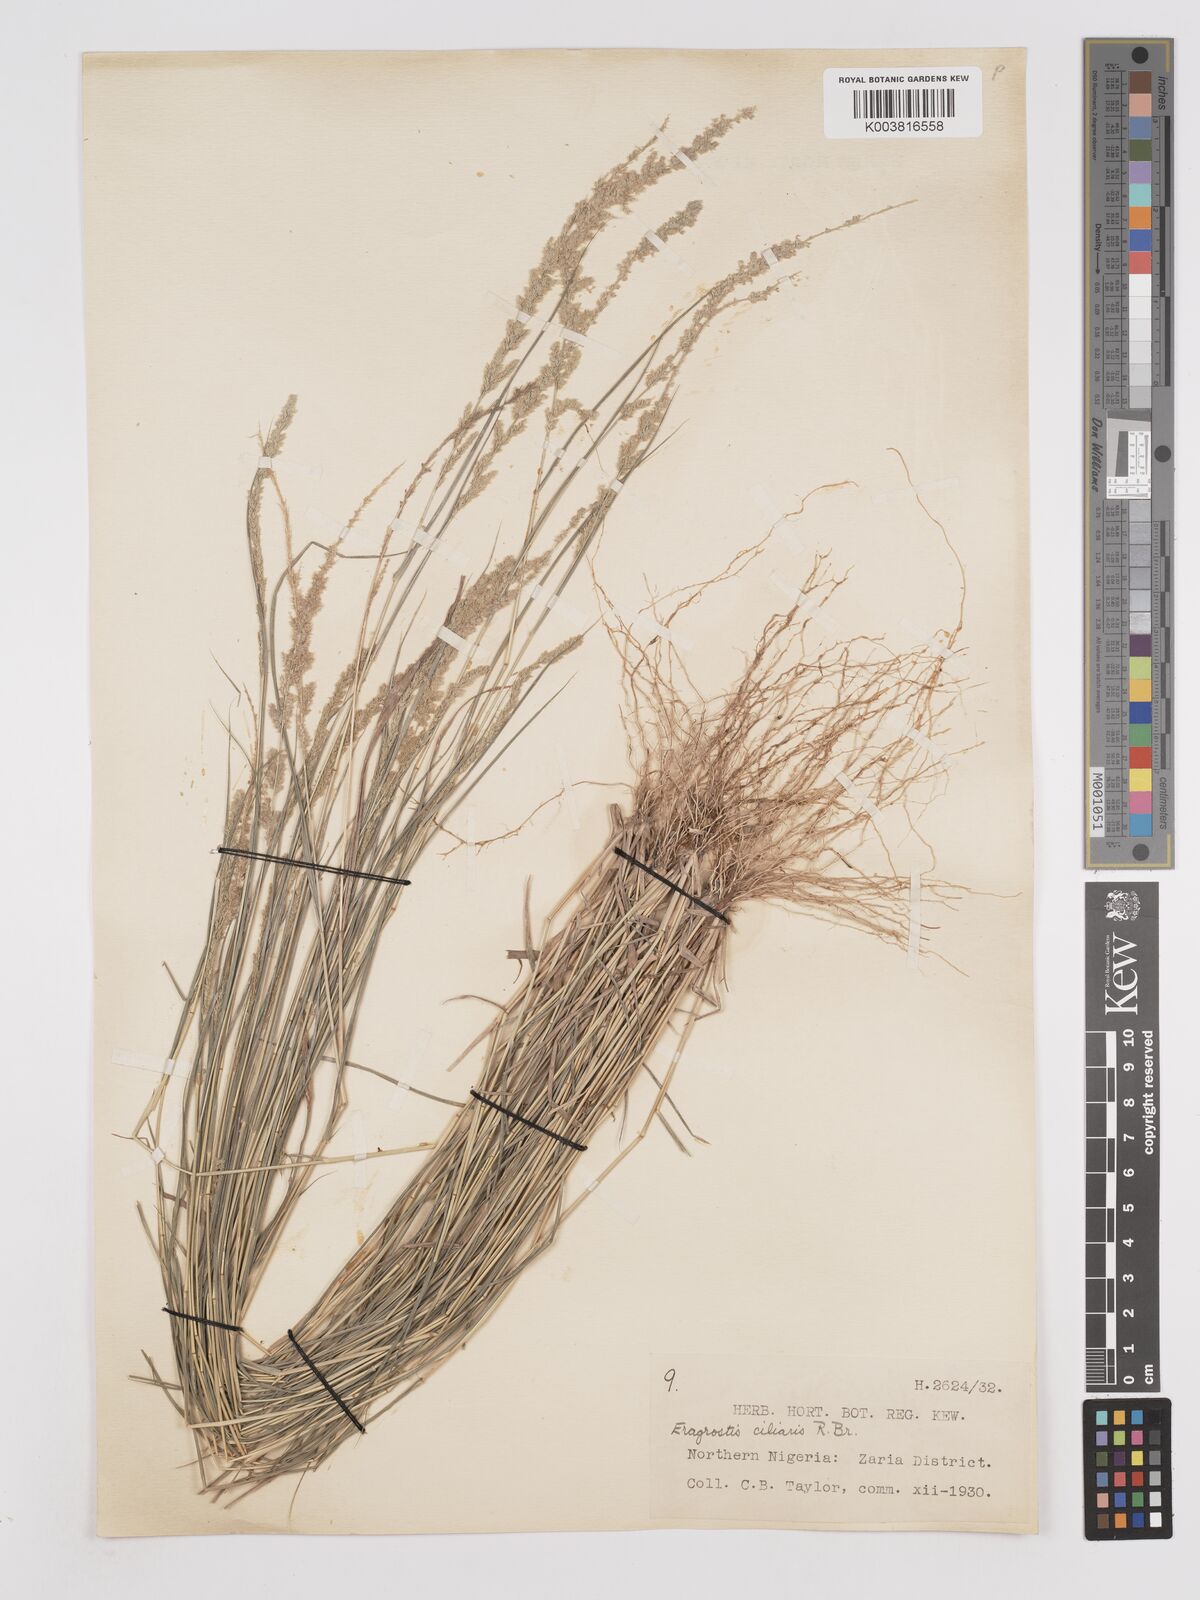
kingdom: Plantae
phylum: Tracheophyta
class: Liliopsida
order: Poales
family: Poaceae
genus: Eragrostis
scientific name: Eragrostis ciliaris
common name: Gophertail lovegrass
